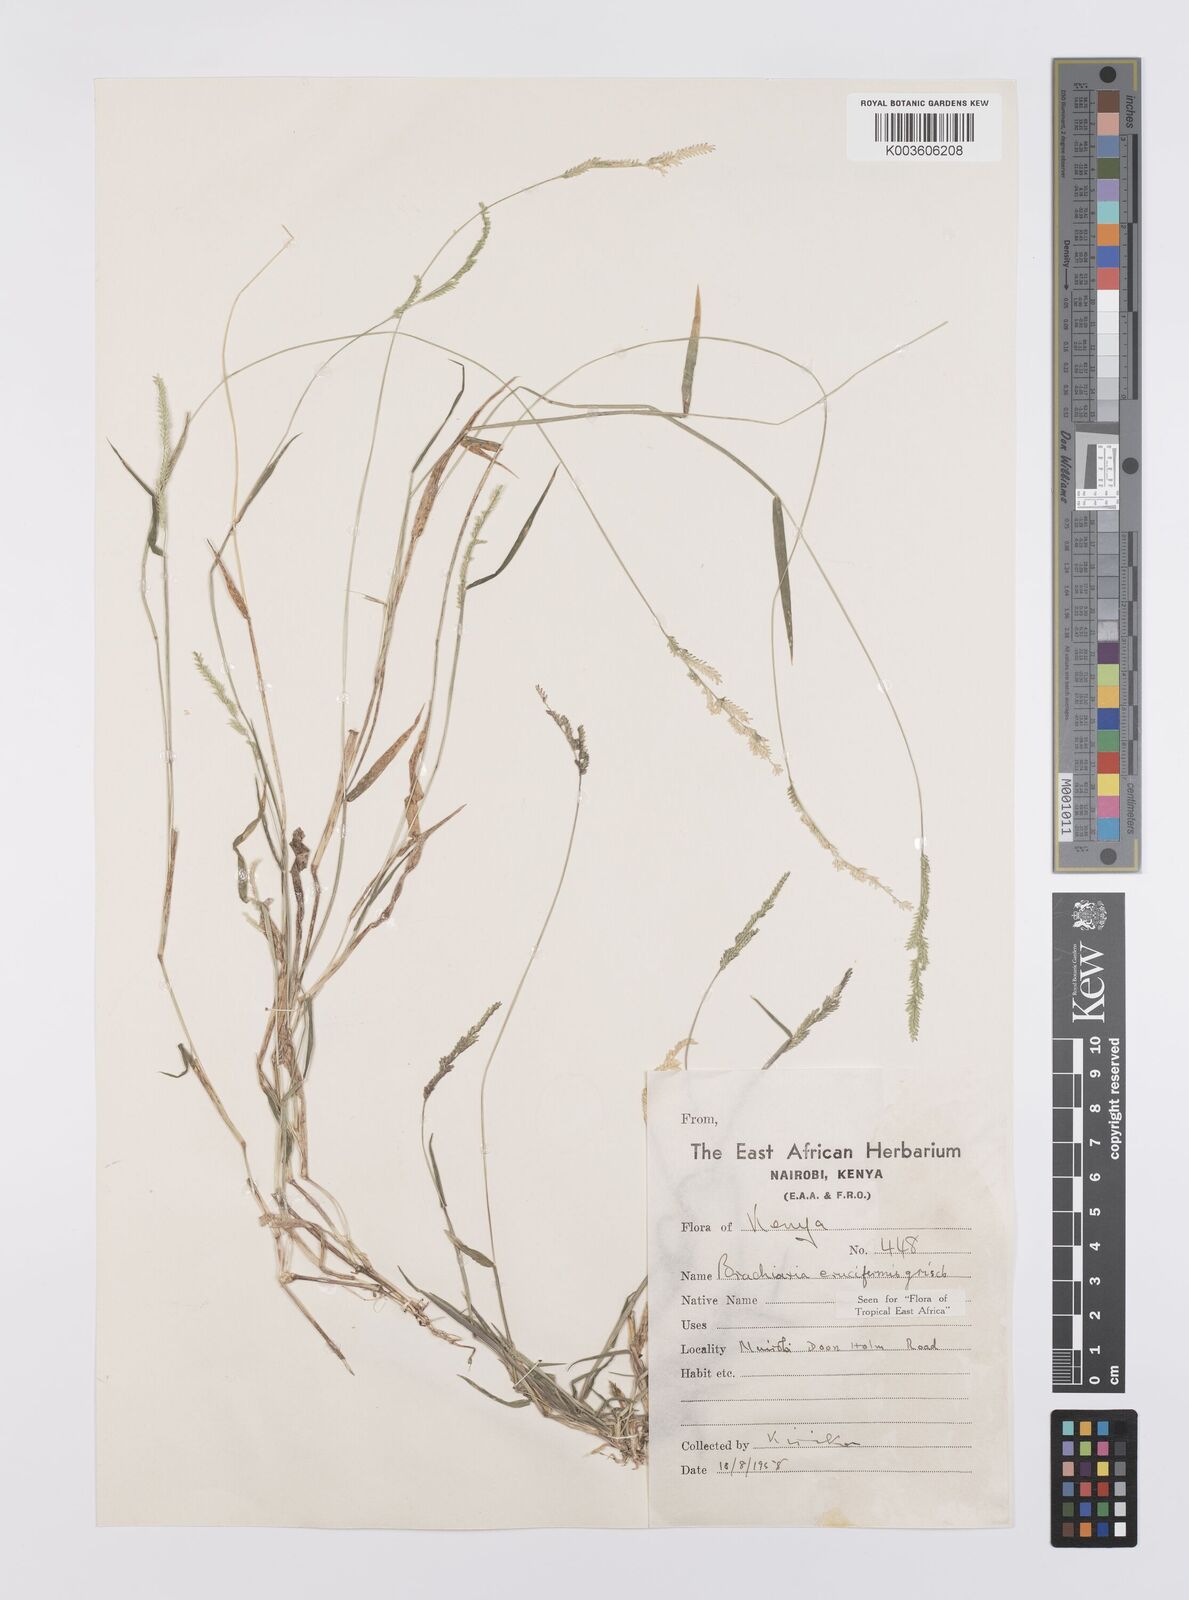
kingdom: Plantae
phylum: Tracheophyta
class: Liliopsida
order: Poales
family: Poaceae
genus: Moorochloa
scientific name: Moorochloa eruciformis
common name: Sweet signalgrass
